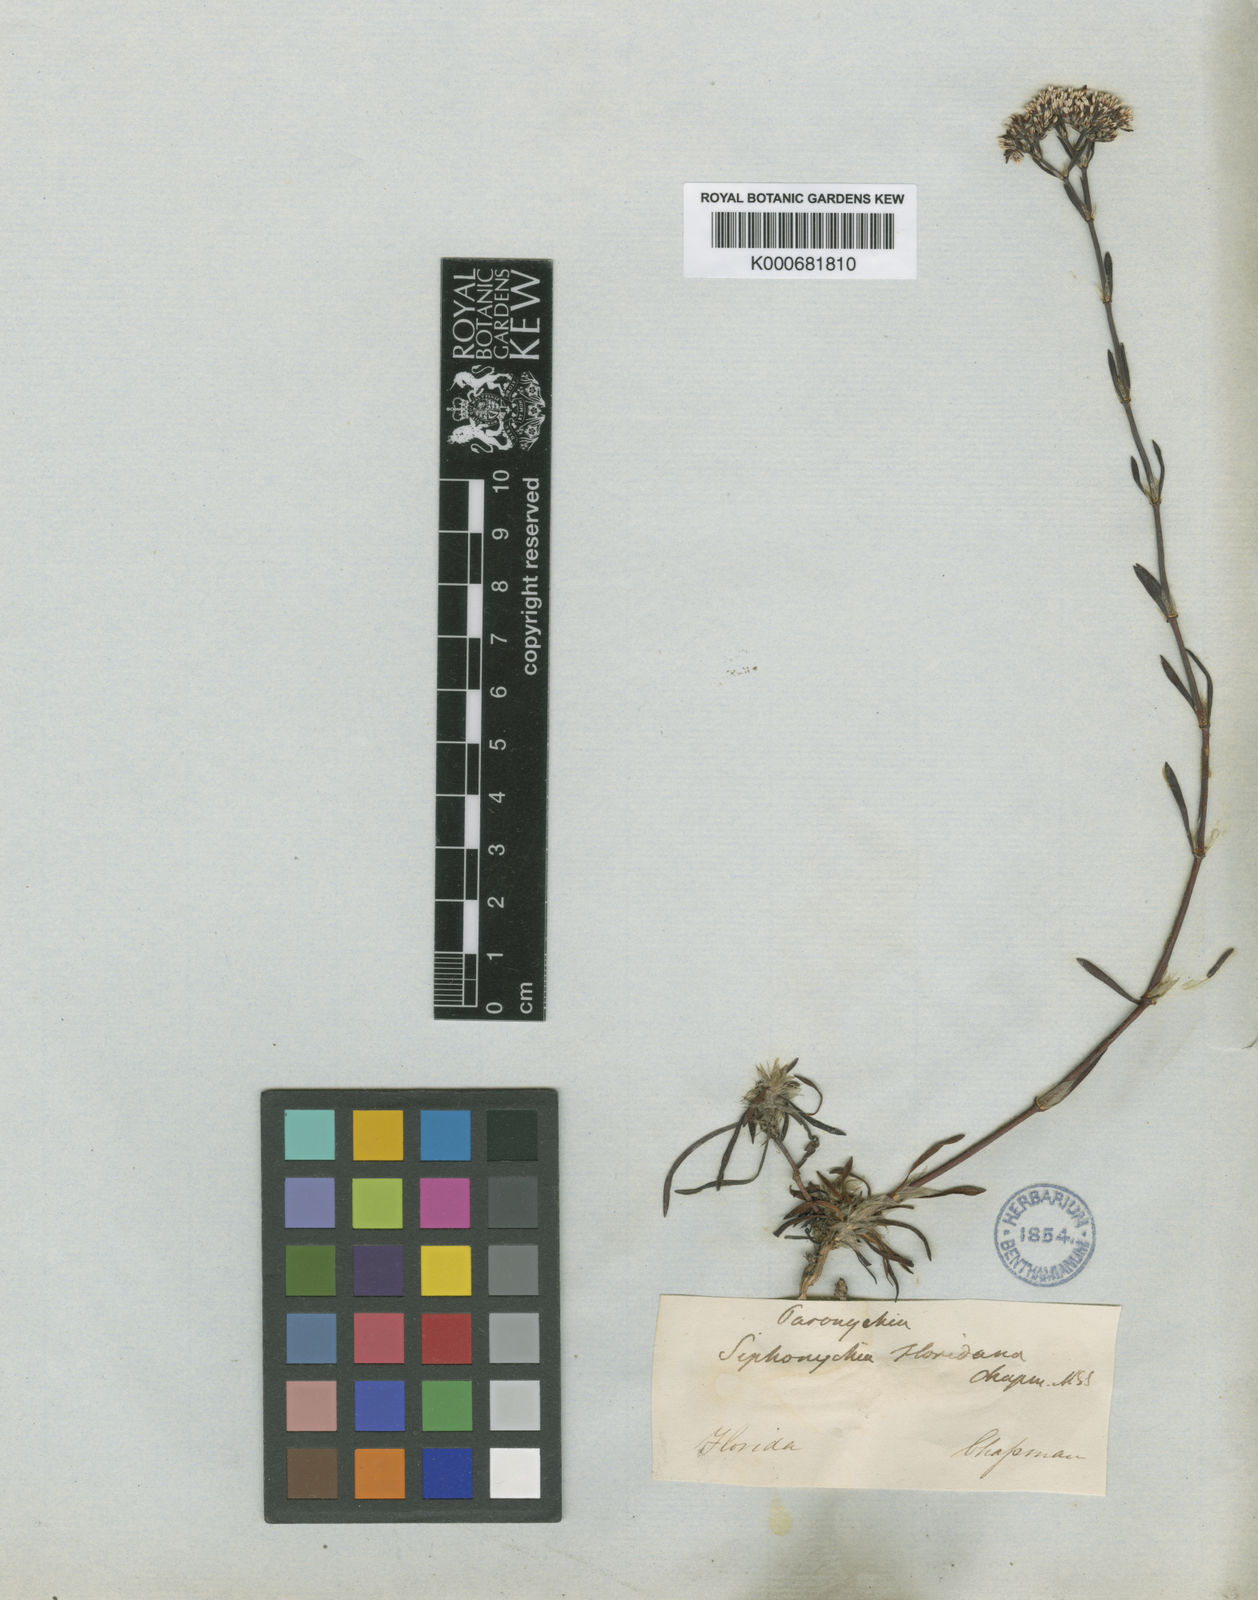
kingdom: Plantae
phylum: Tracheophyta
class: Magnoliopsida
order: Caryophyllales
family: Caryophyllaceae
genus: Paronychia
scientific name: Paronychia
